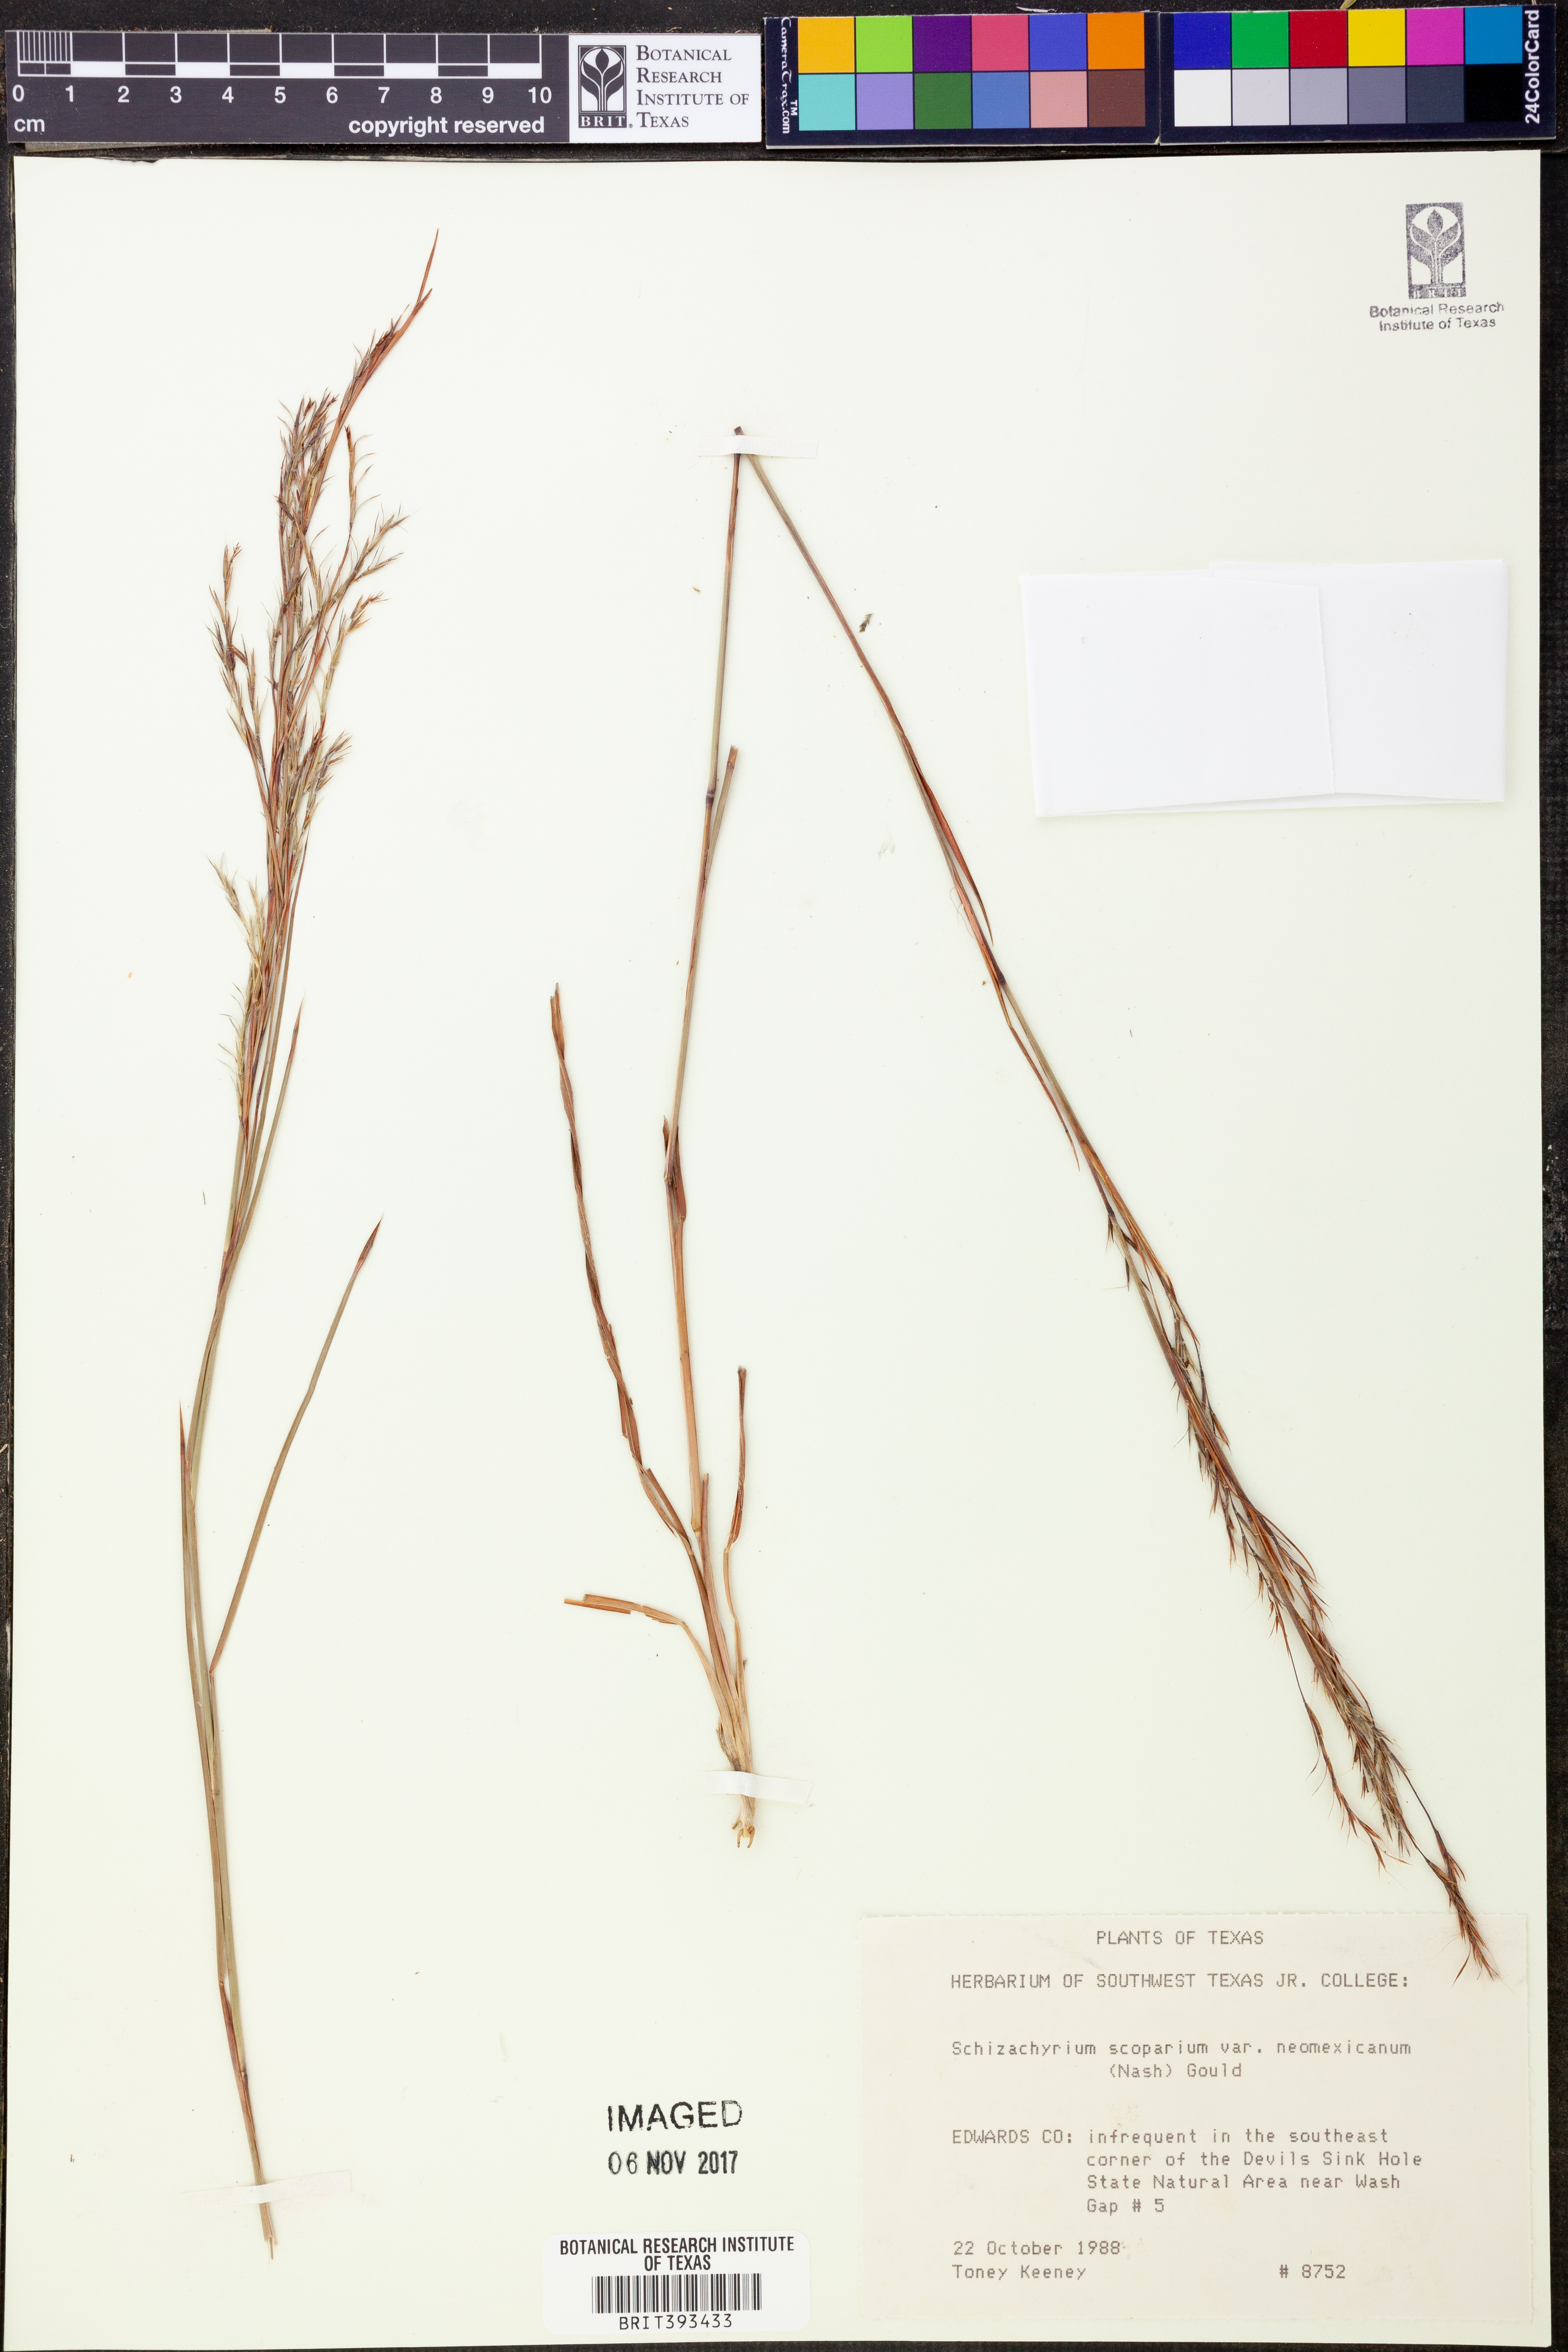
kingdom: Plantae
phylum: Tracheophyta
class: Liliopsida
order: Poales
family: Poaceae
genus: Schizachyrium
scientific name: Schizachyrium scoparium
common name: Little bluestem
